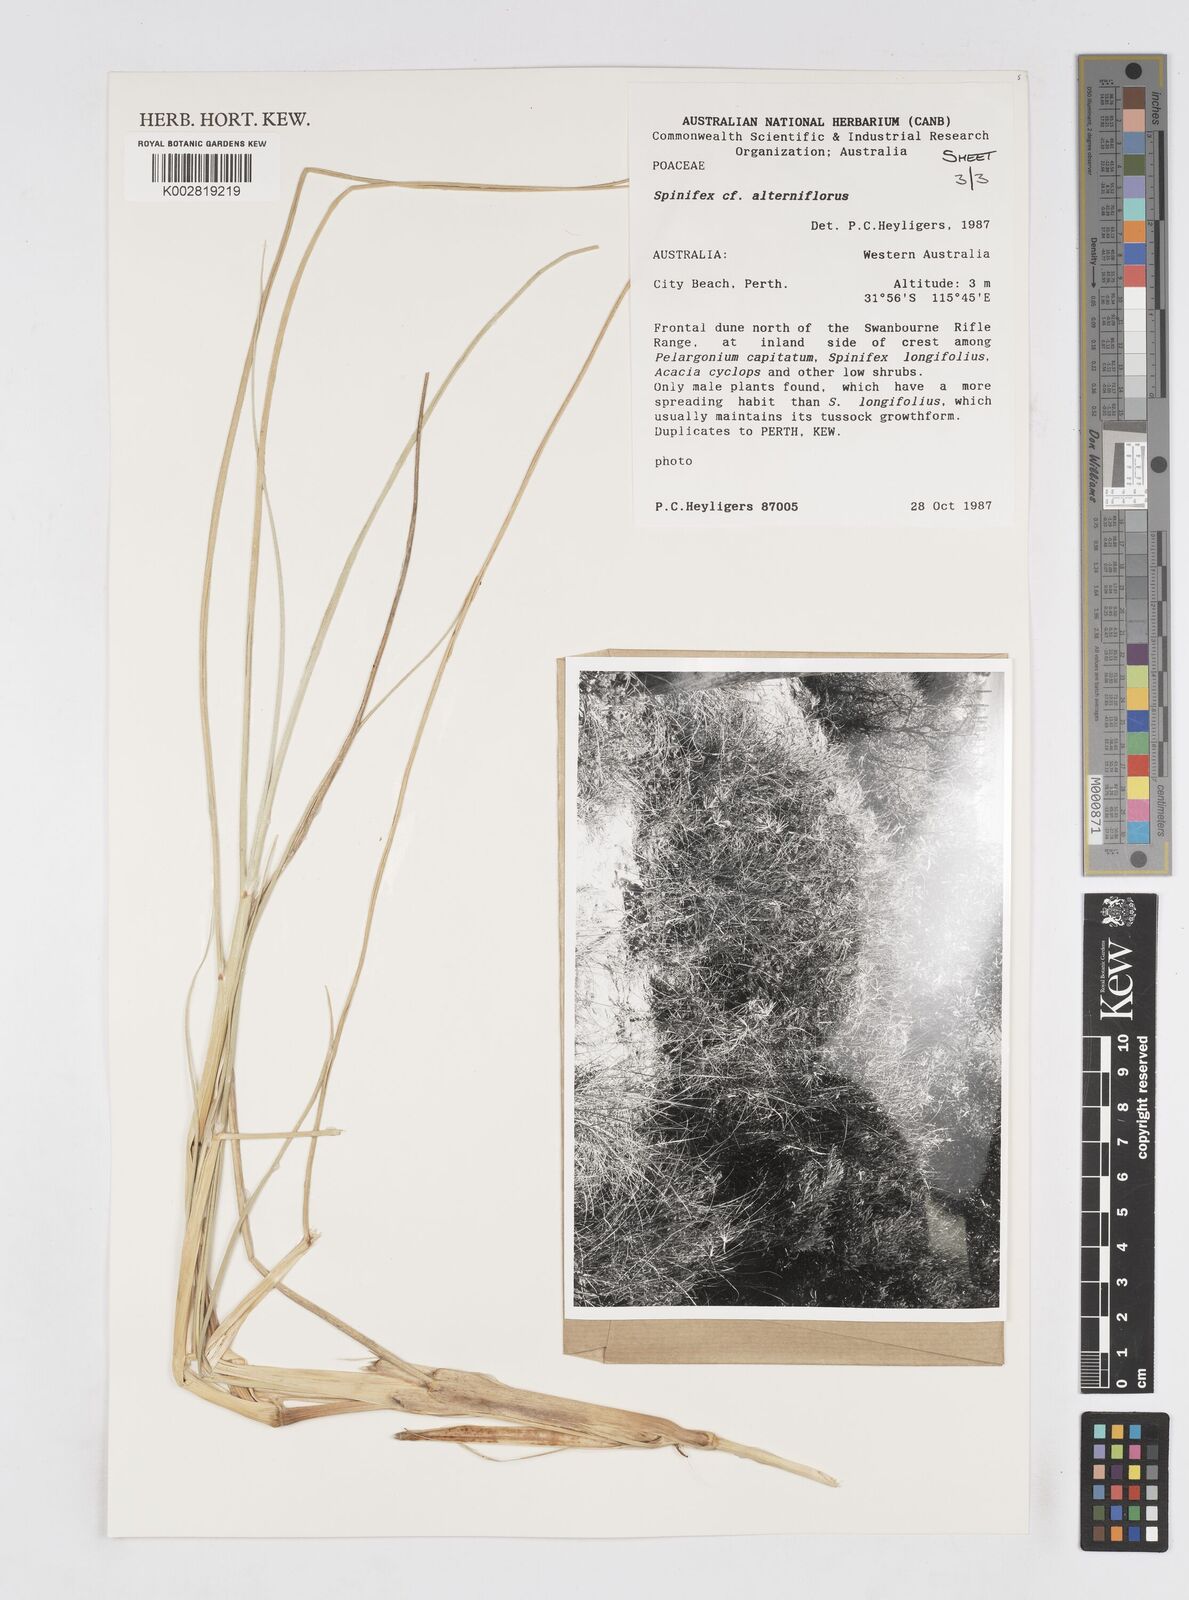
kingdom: Plantae
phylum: Tracheophyta
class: Liliopsida
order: Poales
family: Poaceae
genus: Spinifex
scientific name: Spinifex alterniflorus
